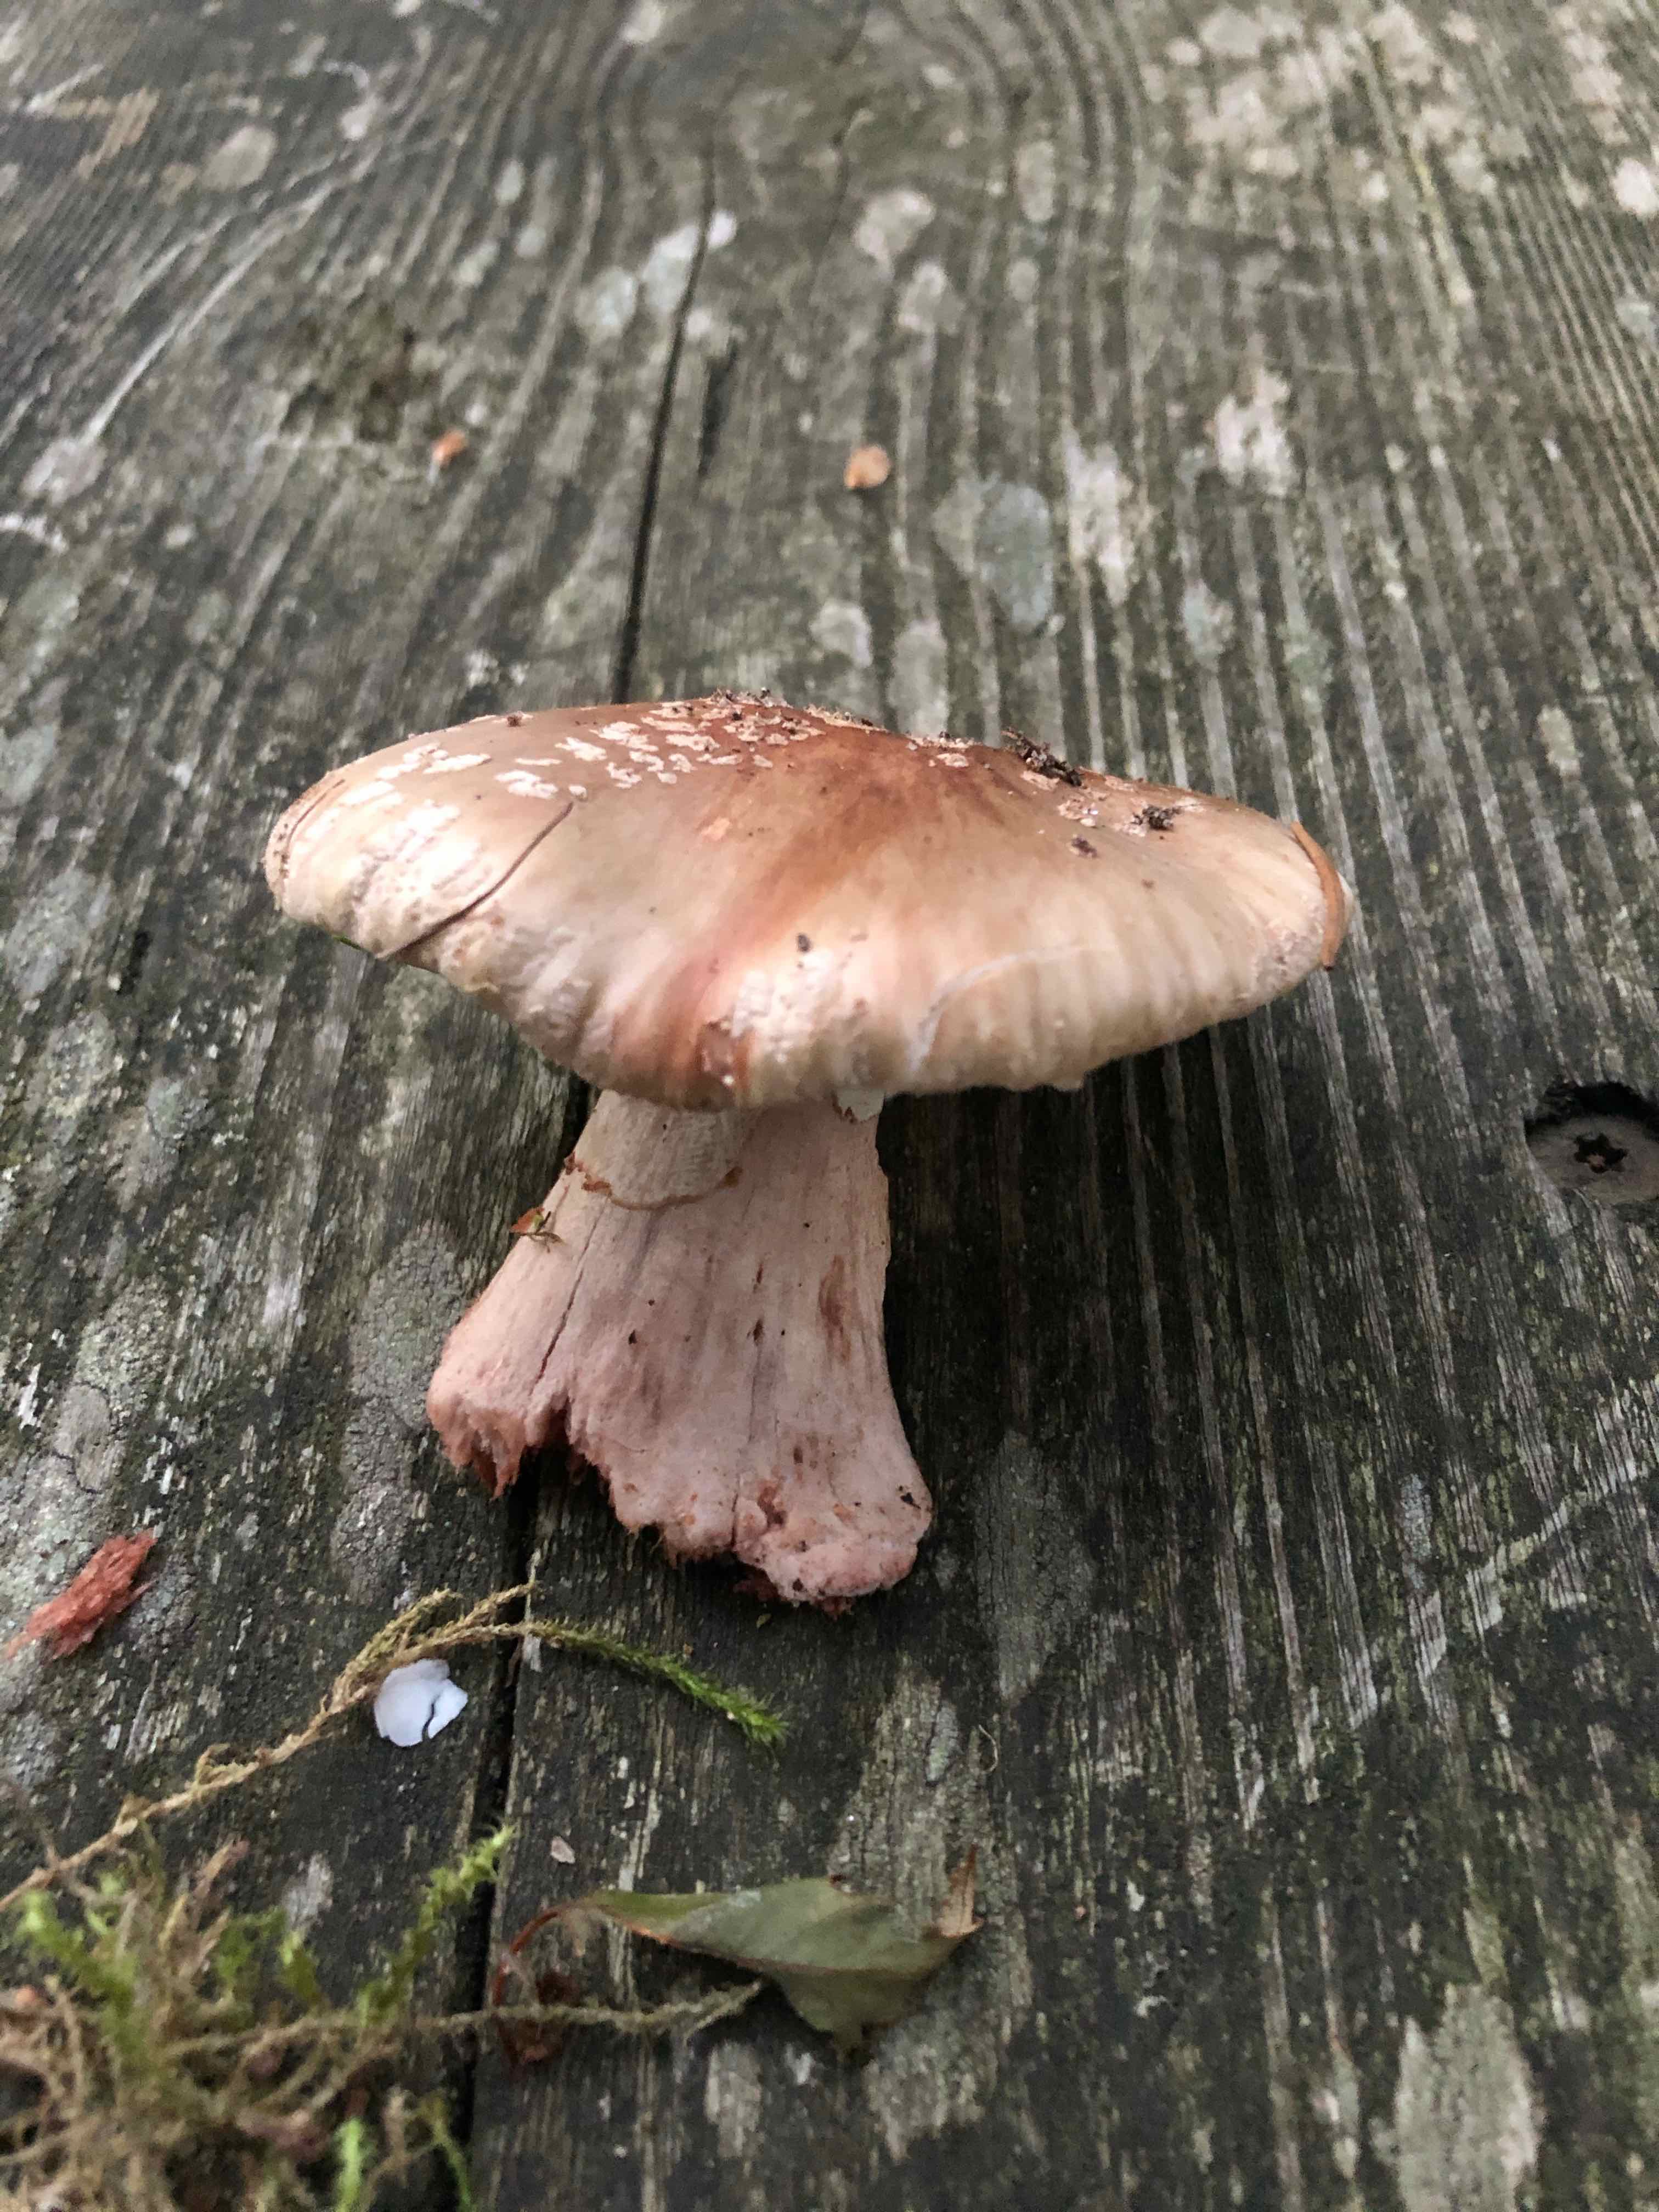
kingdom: Fungi
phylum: Basidiomycota
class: Agaricomycetes
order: Agaricales
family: Amanitaceae
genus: Amanita
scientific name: Amanita rubescens
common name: rødmende fluesvamp
